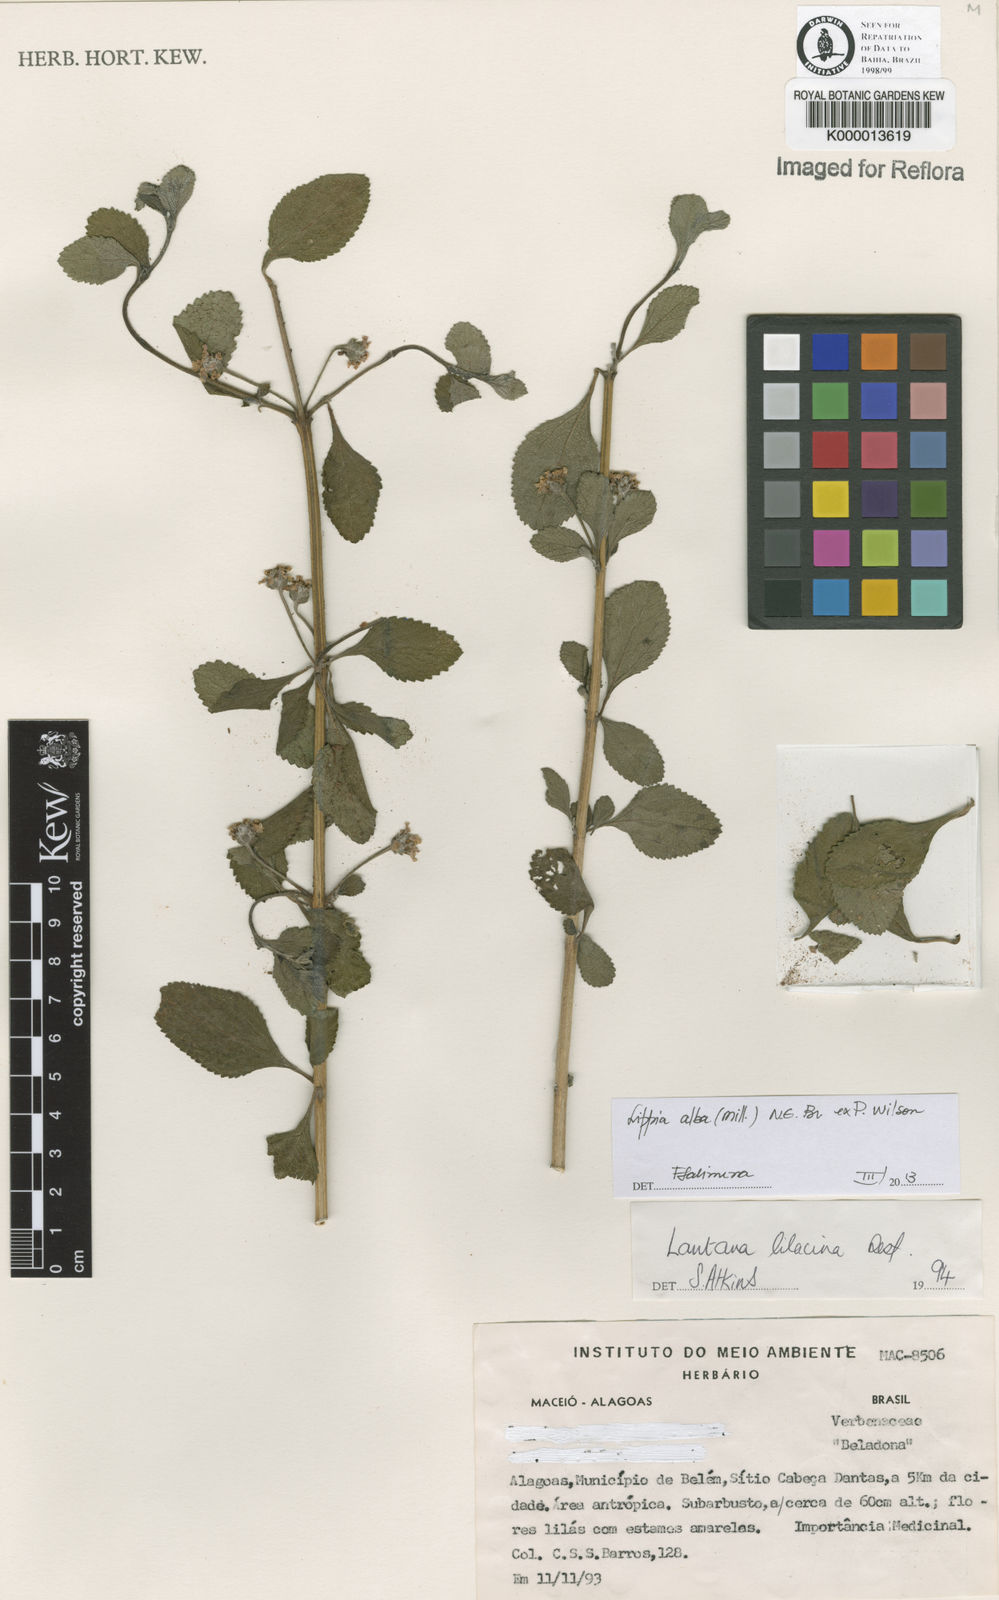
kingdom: Plantae
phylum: Tracheophyta
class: Magnoliopsida
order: Lamiales
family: Verbenaceae
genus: Lippia
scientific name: Lippia
